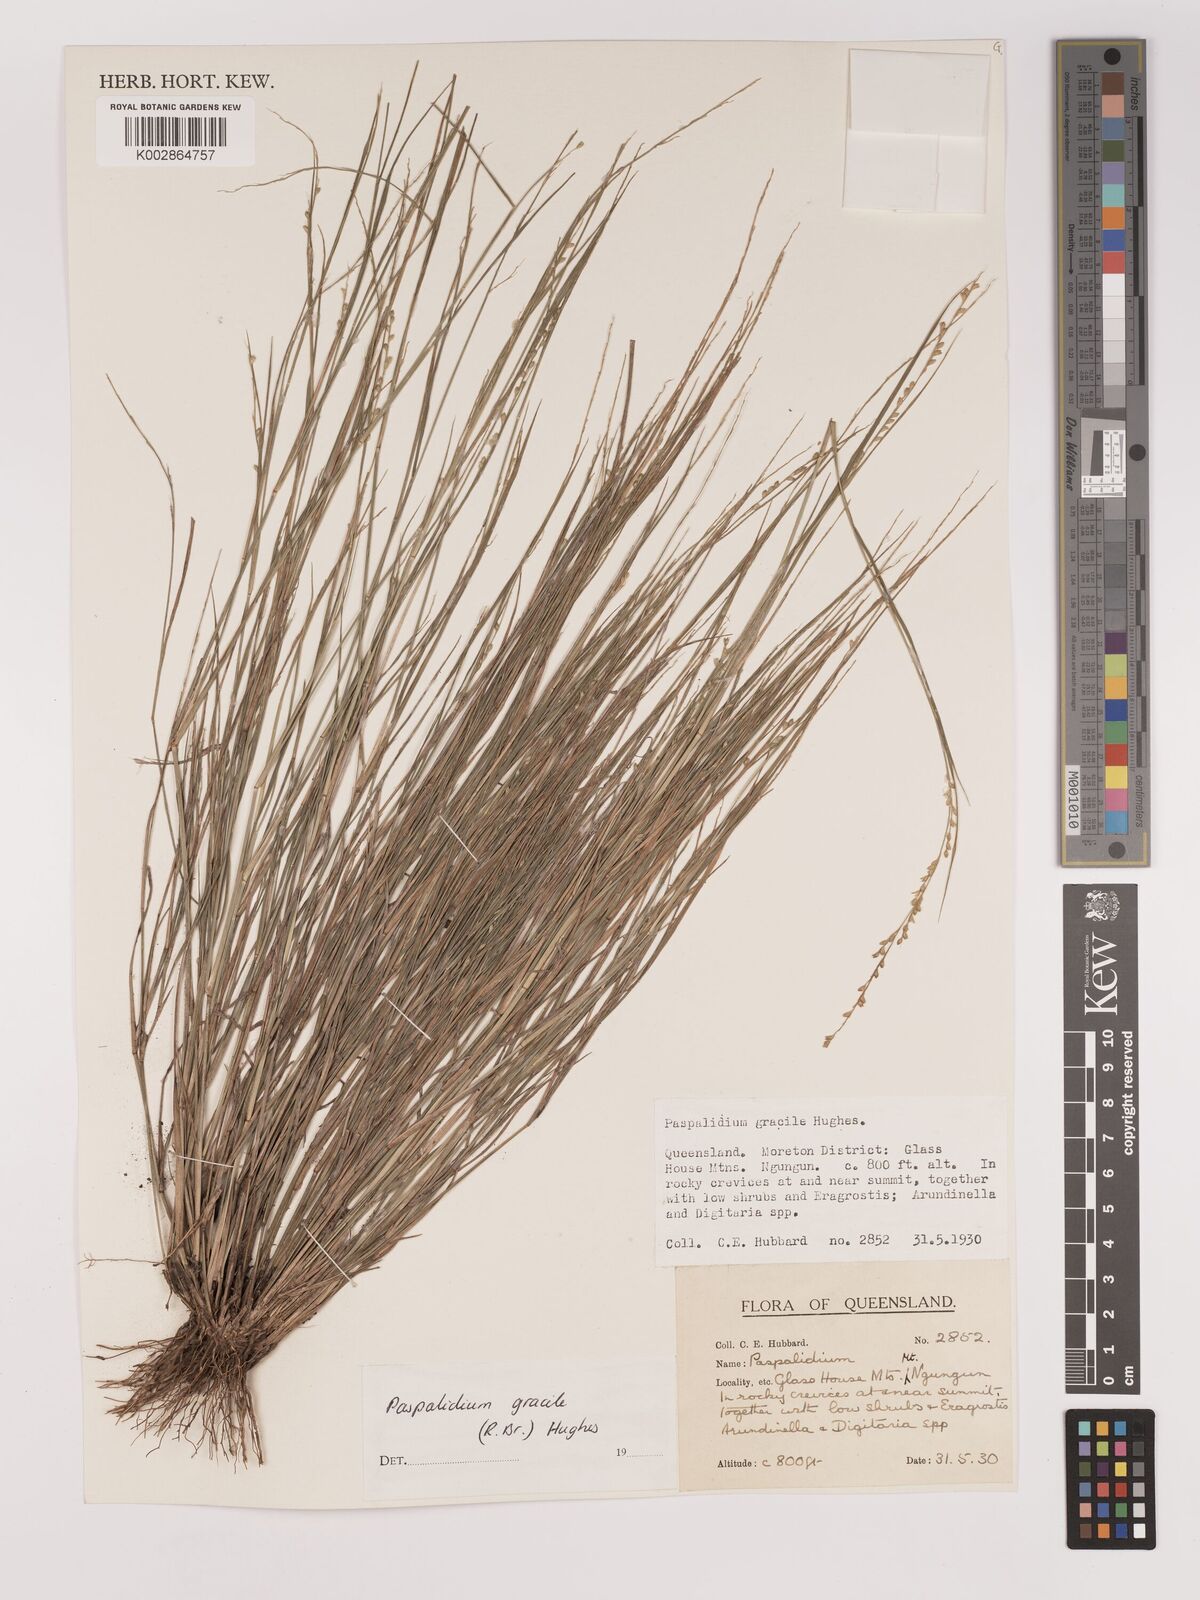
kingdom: Plantae
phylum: Tracheophyta
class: Liliopsida
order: Poales
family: Poaceae
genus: Setaria
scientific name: Setaria brownii
